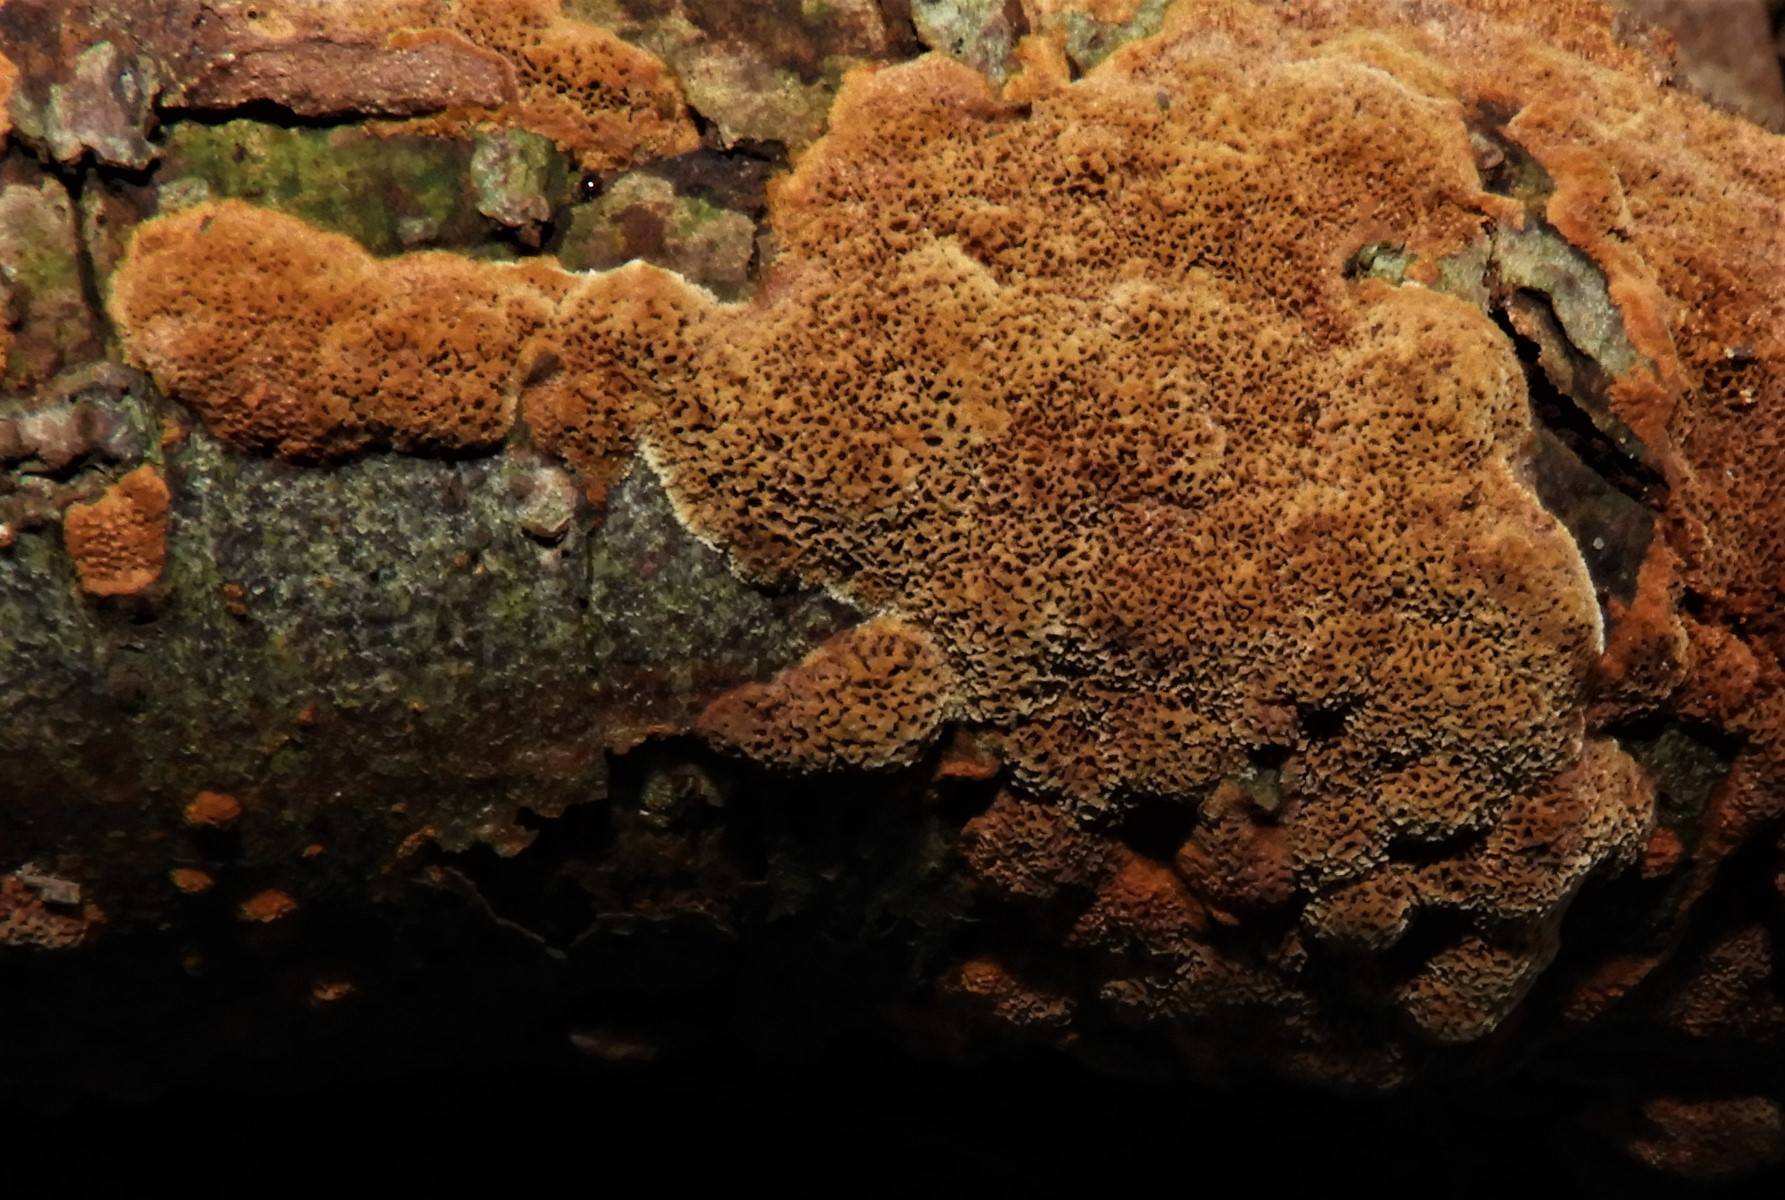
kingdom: Fungi
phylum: Basidiomycota
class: Agaricomycetes
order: Hymenochaetales
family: Hymenochaetaceae
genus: Fuscoporia
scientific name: Fuscoporia
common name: Ildporesvamp
